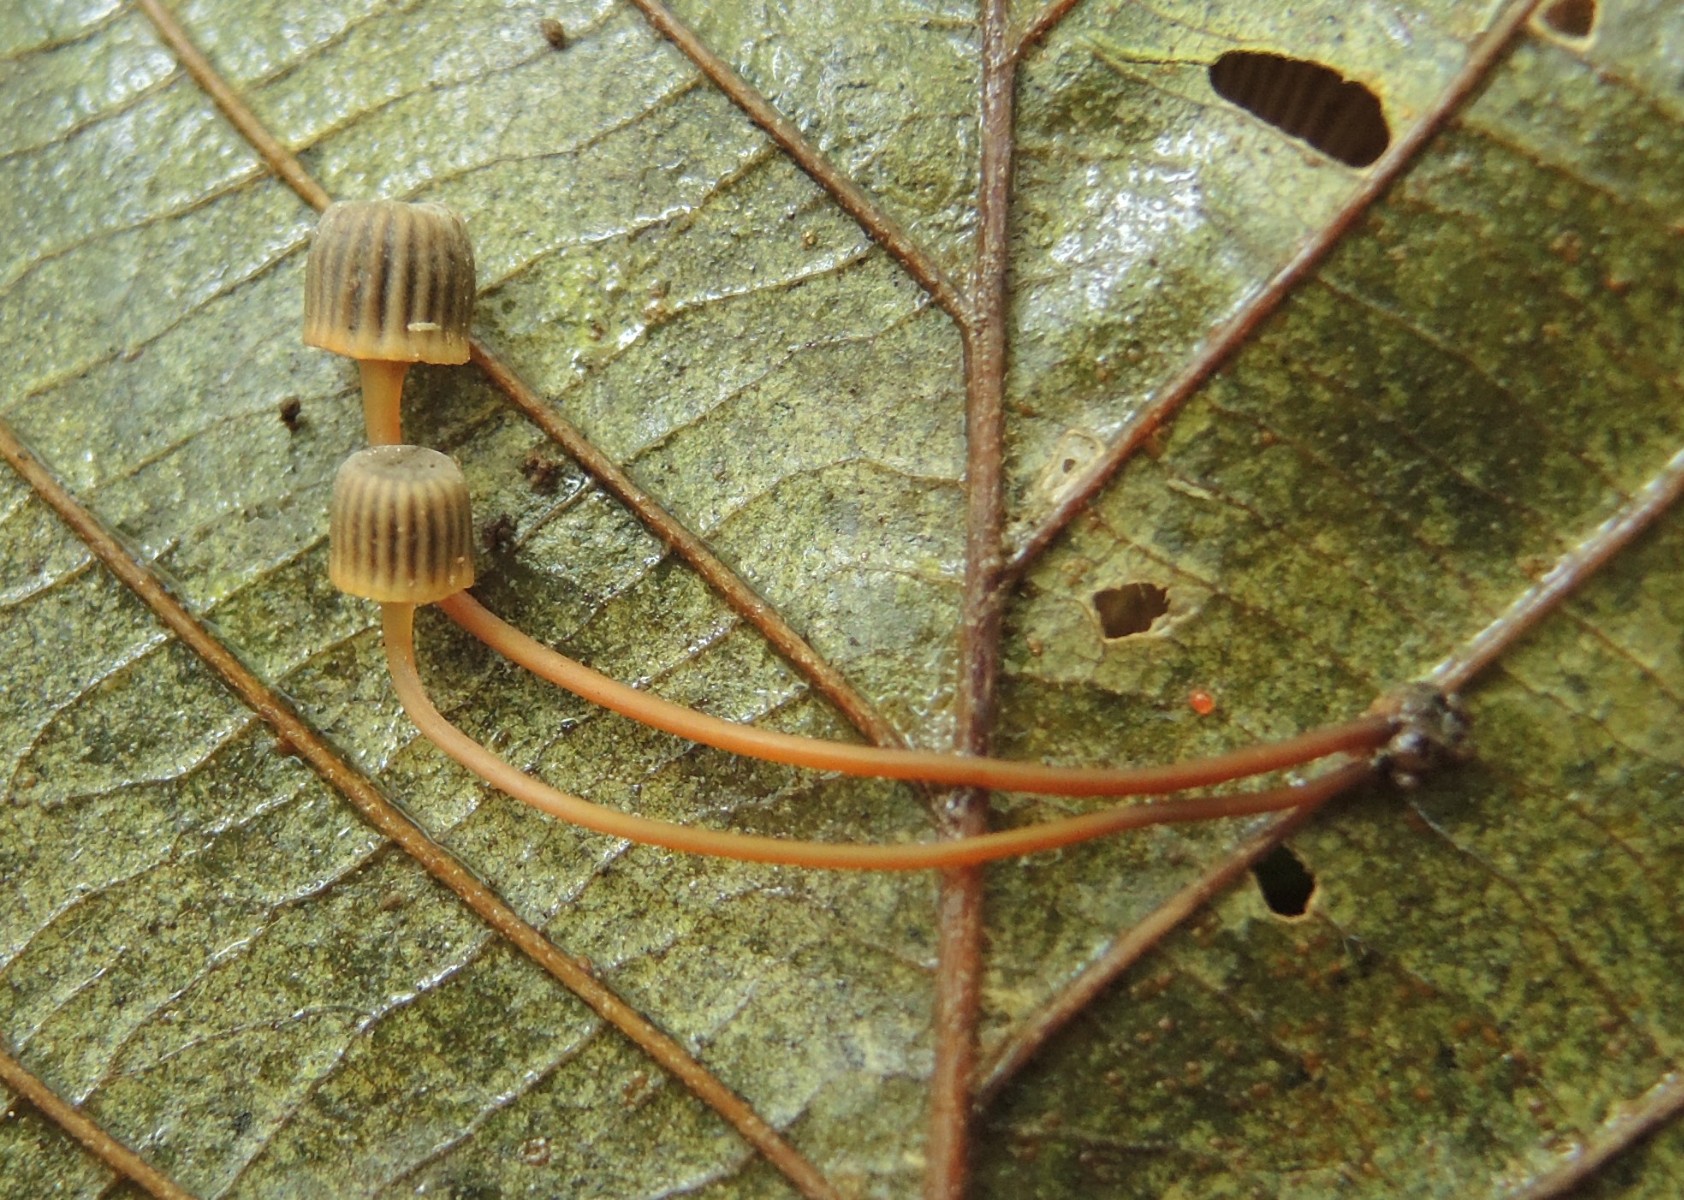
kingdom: Fungi
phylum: Basidiomycota
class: Agaricomycetes
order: Agaricales
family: Mycenaceae
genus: Mycena
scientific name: Mycena picta
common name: kantet huesvamp
